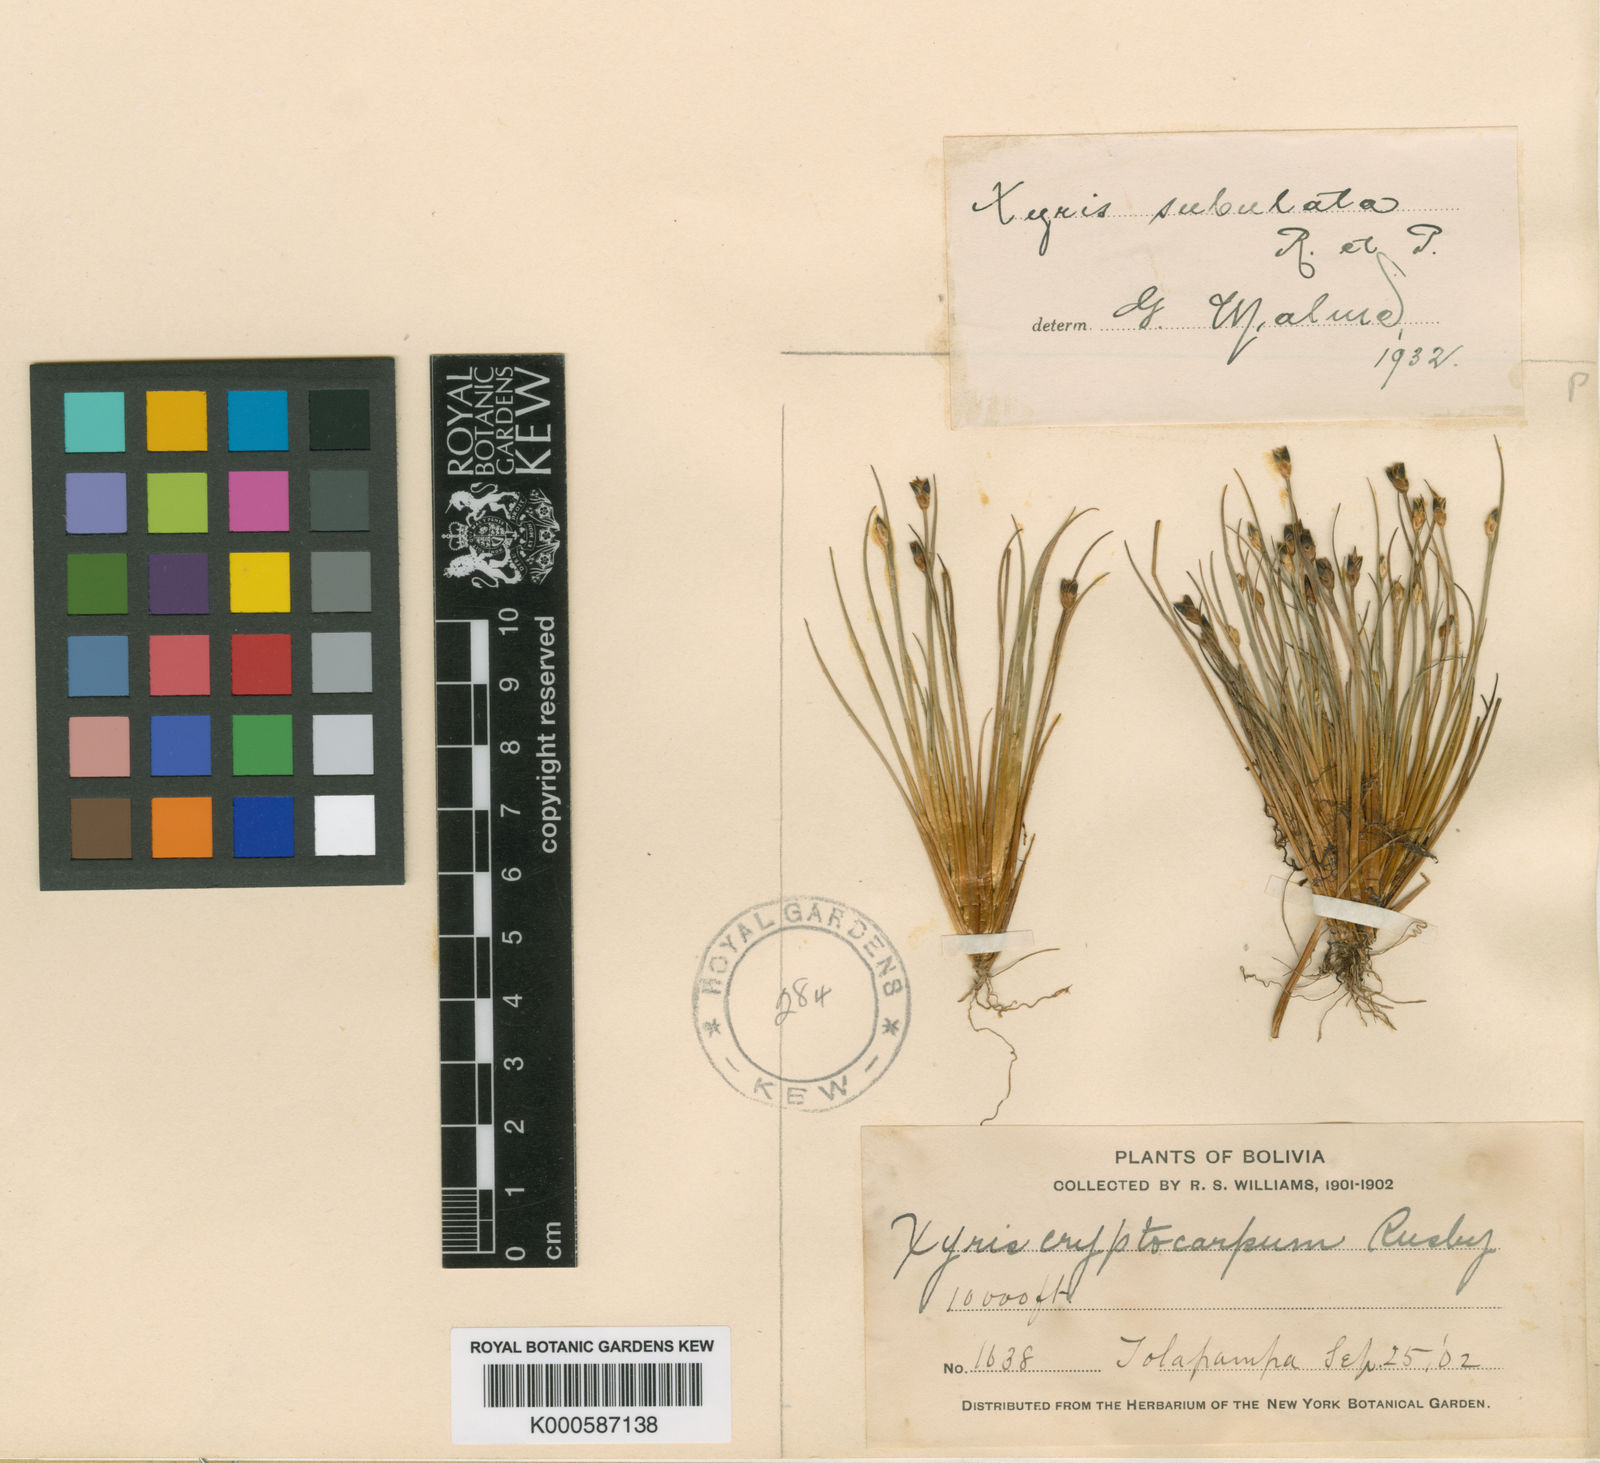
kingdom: Plantae
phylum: Tracheophyta
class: Liliopsida
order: Poales
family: Xyridaceae
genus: Xyris
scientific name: Xyris subulata
